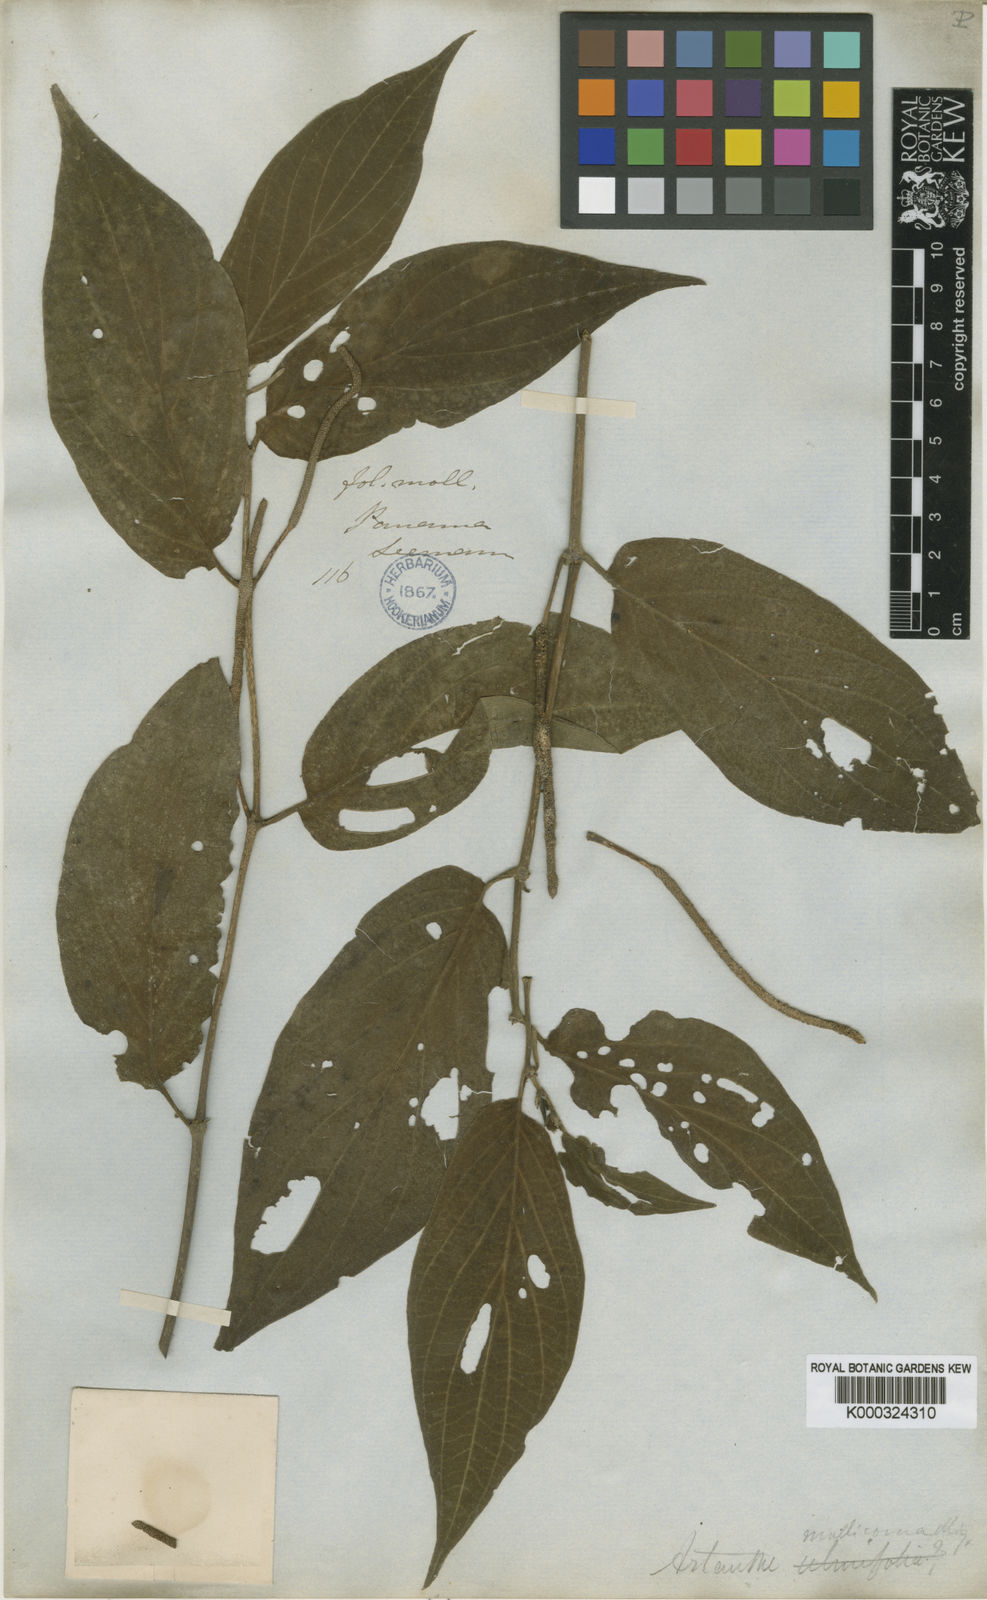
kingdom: Plantae
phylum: Tracheophyta
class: Magnoliopsida
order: Piperales
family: Piperaceae
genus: Piper
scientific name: Piper
